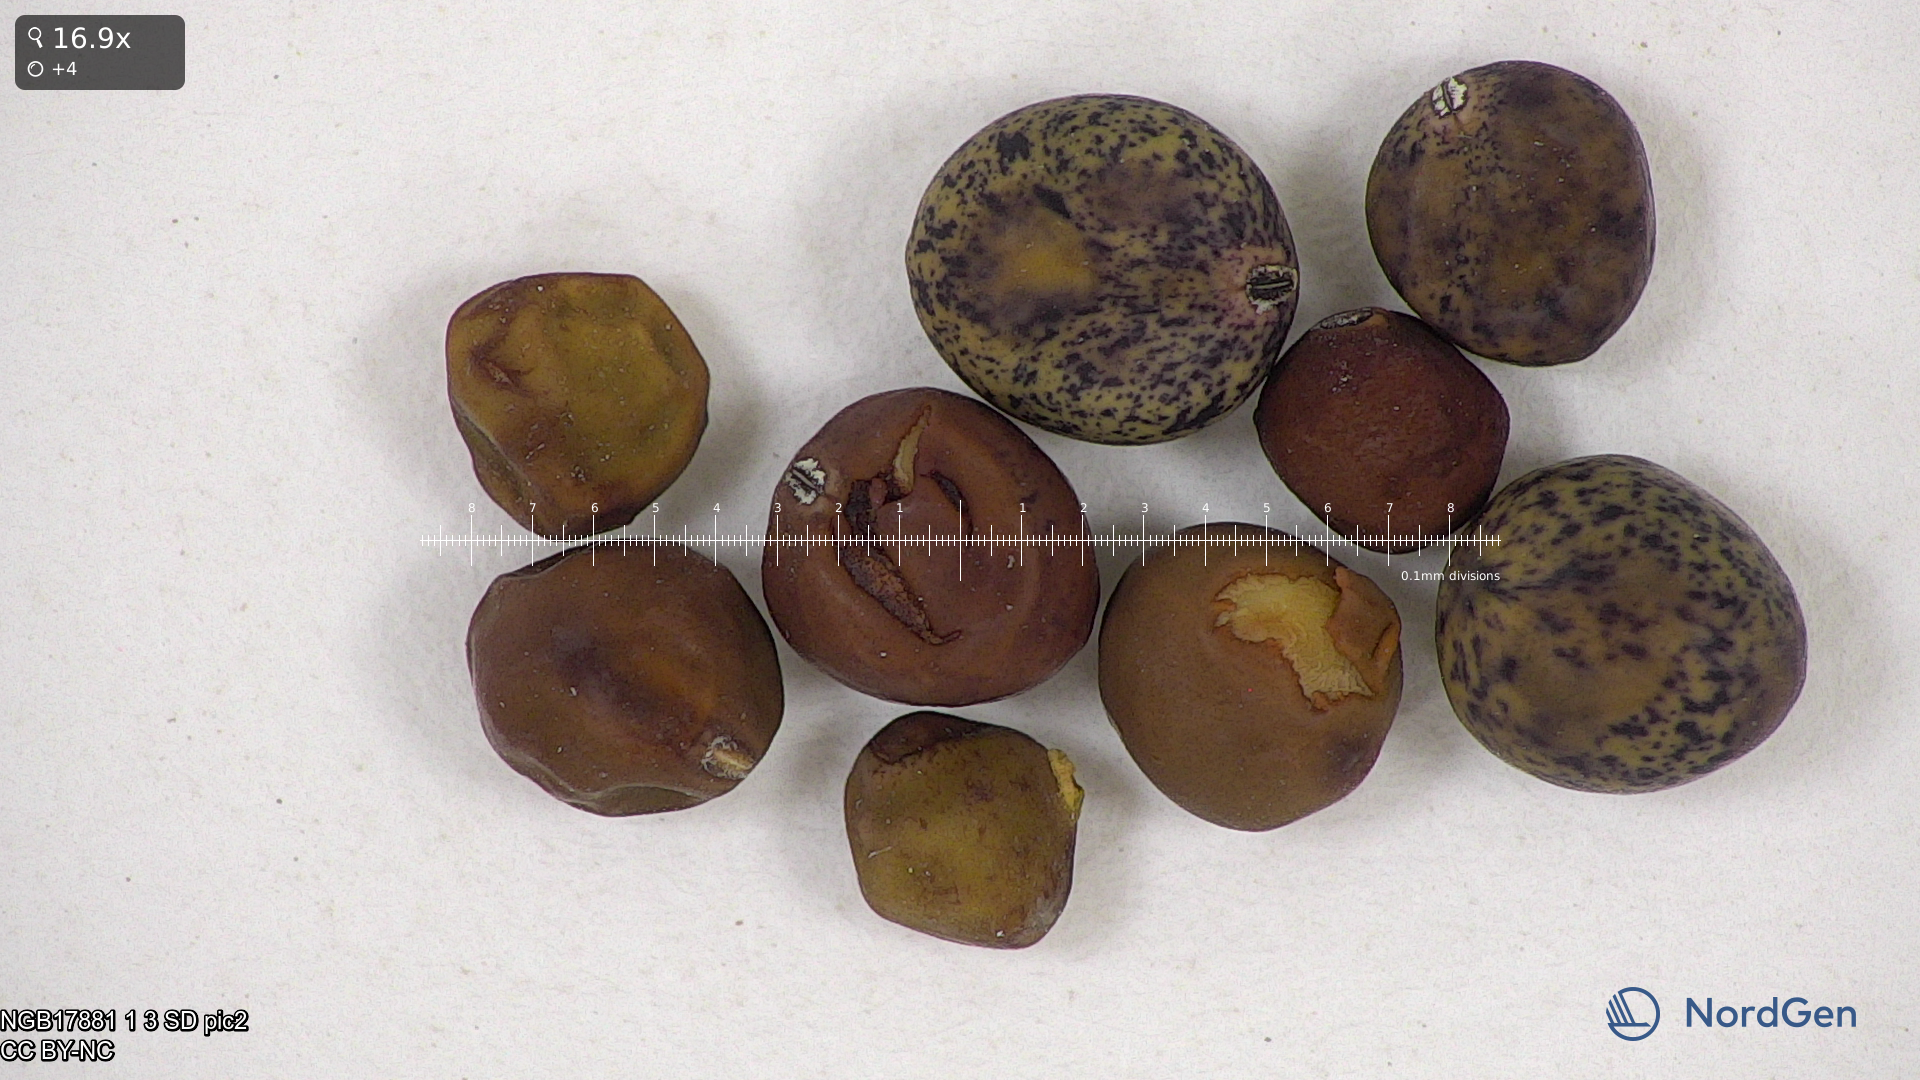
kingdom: Plantae
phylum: Tracheophyta
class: Magnoliopsida
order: Fabales
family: Fabaceae
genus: Lathyrus
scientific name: Lathyrus oleraceus
